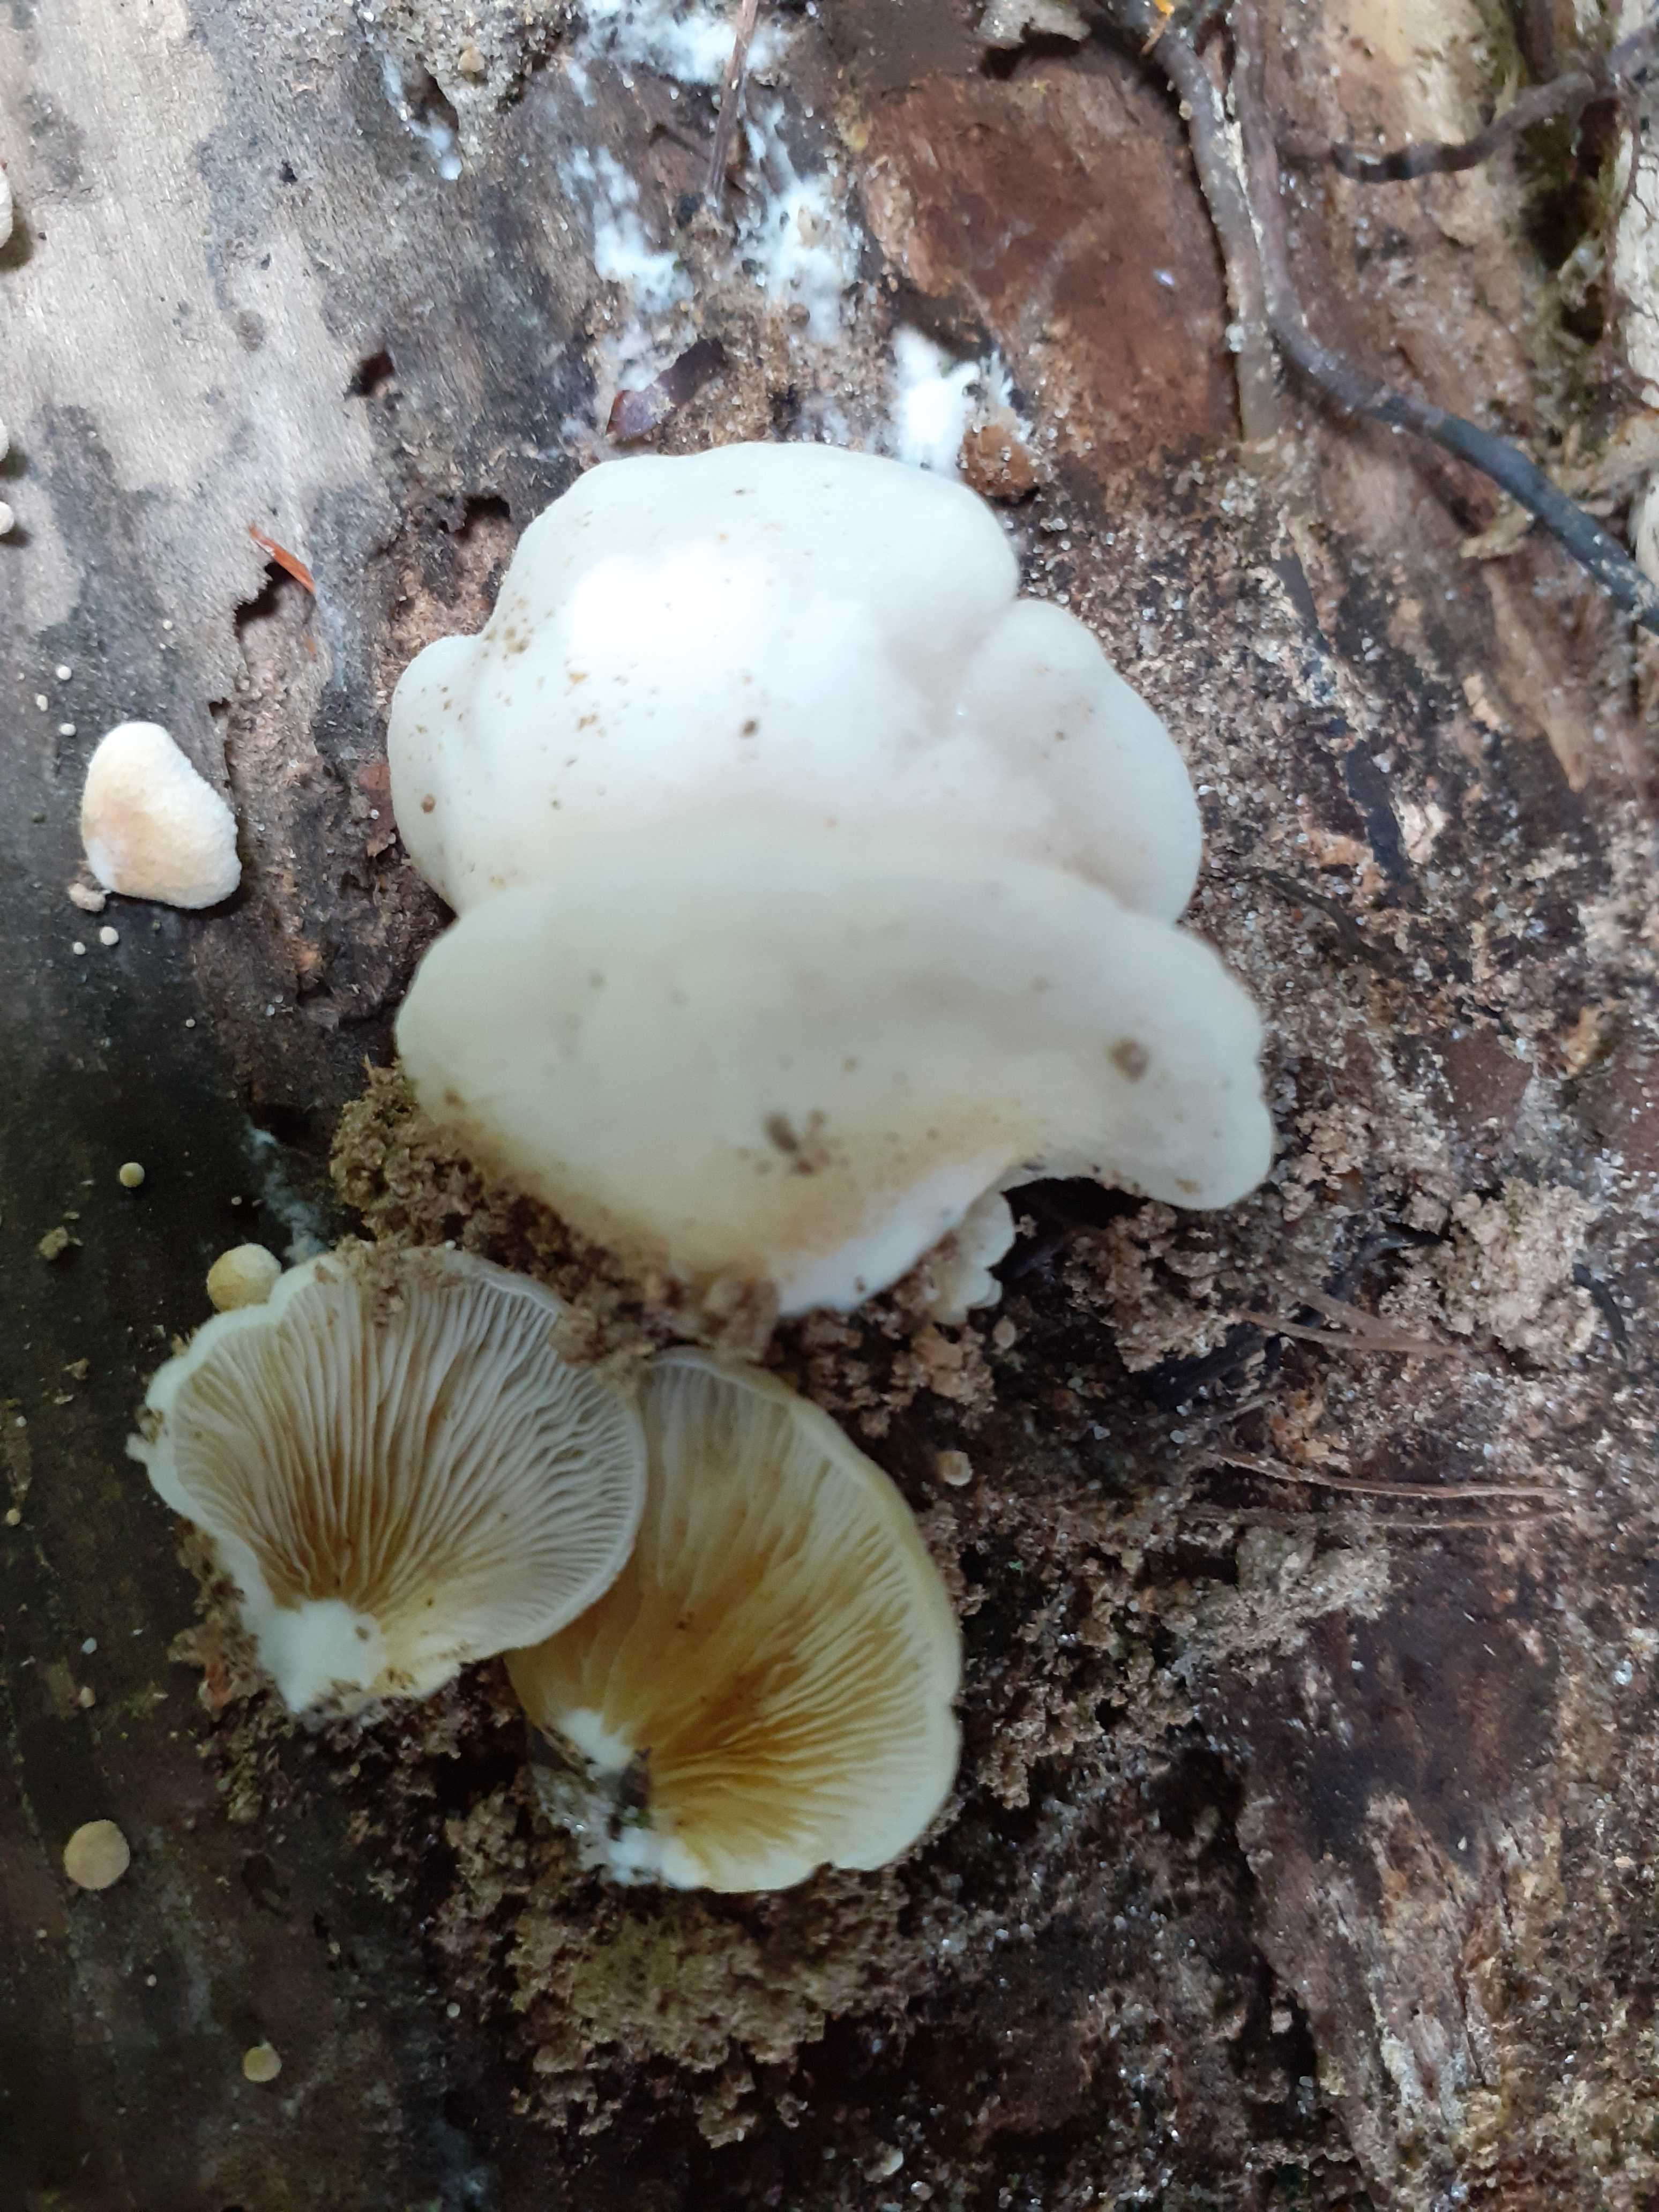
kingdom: Fungi
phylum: Basidiomycota
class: Agaricomycetes
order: Agaricales
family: Crepidotaceae
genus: Crepidotus
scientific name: Crepidotus mollis
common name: blød muslingesvamp
